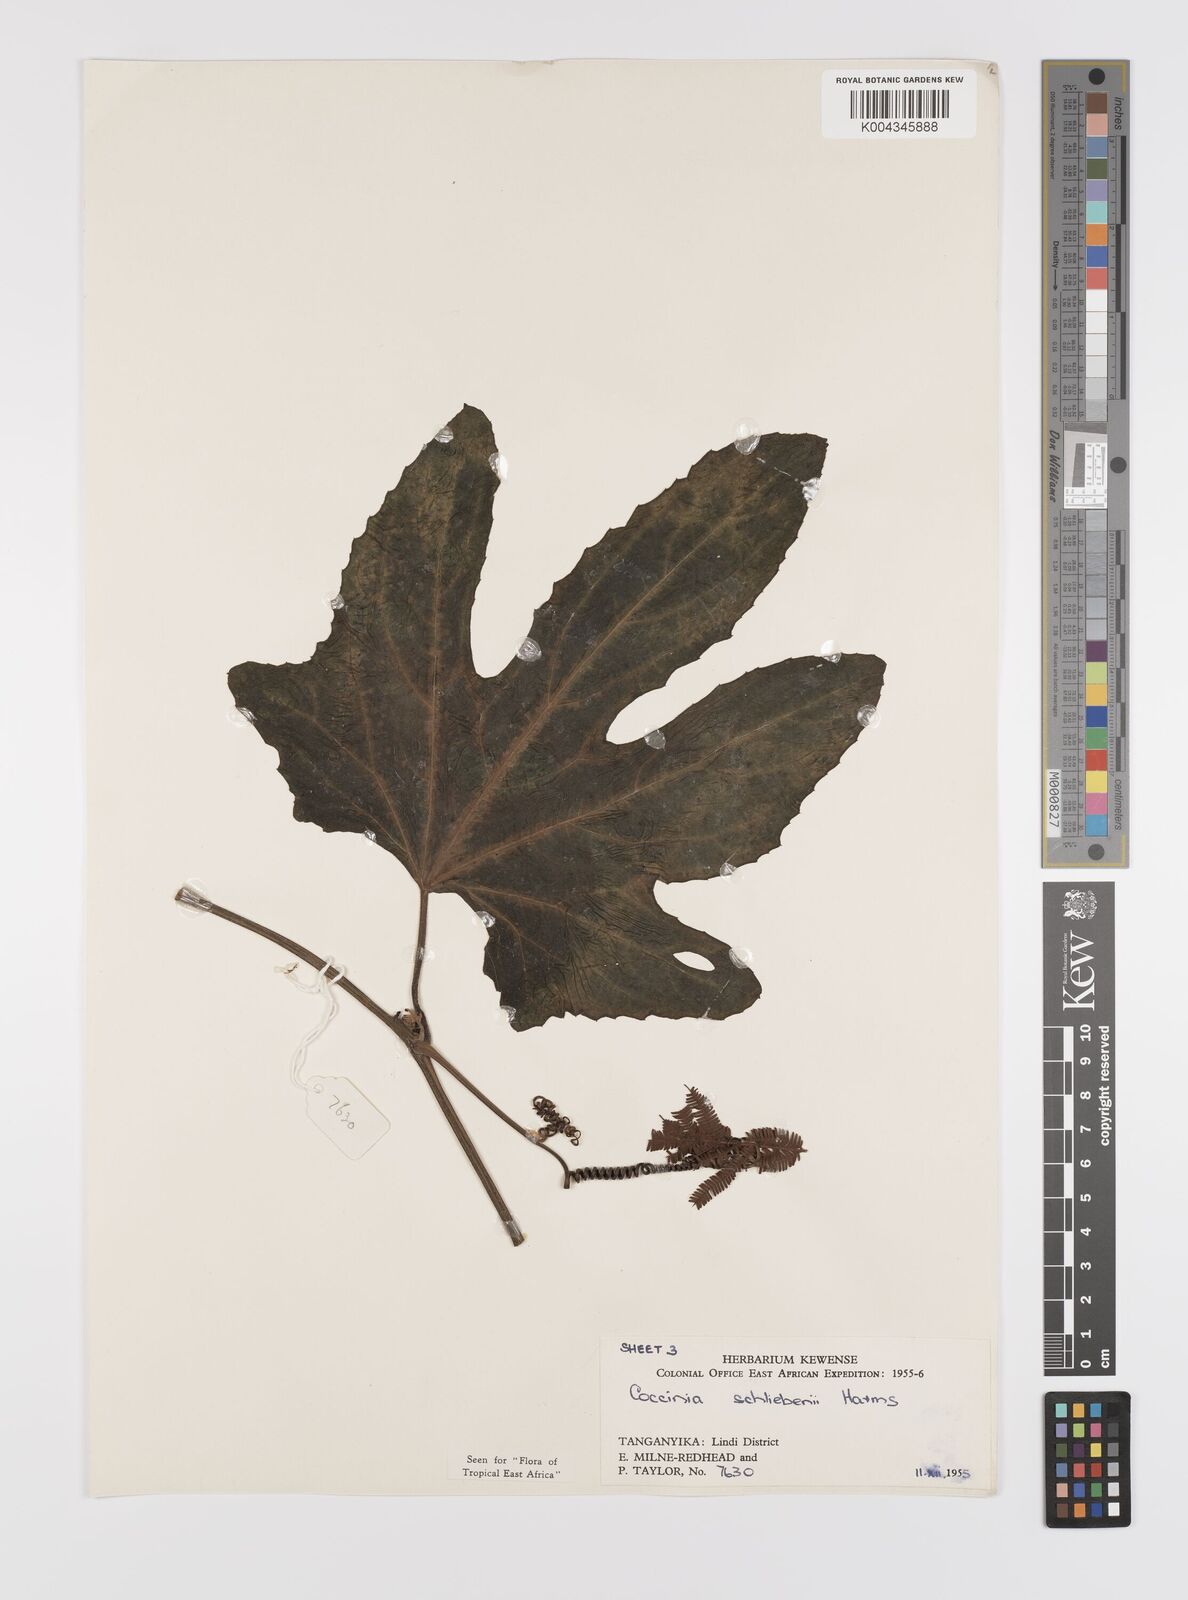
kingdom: Plantae
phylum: Tracheophyta
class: Magnoliopsida
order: Cucurbitales
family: Cucurbitaceae
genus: Coccinia
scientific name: Coccinia schliebenii
